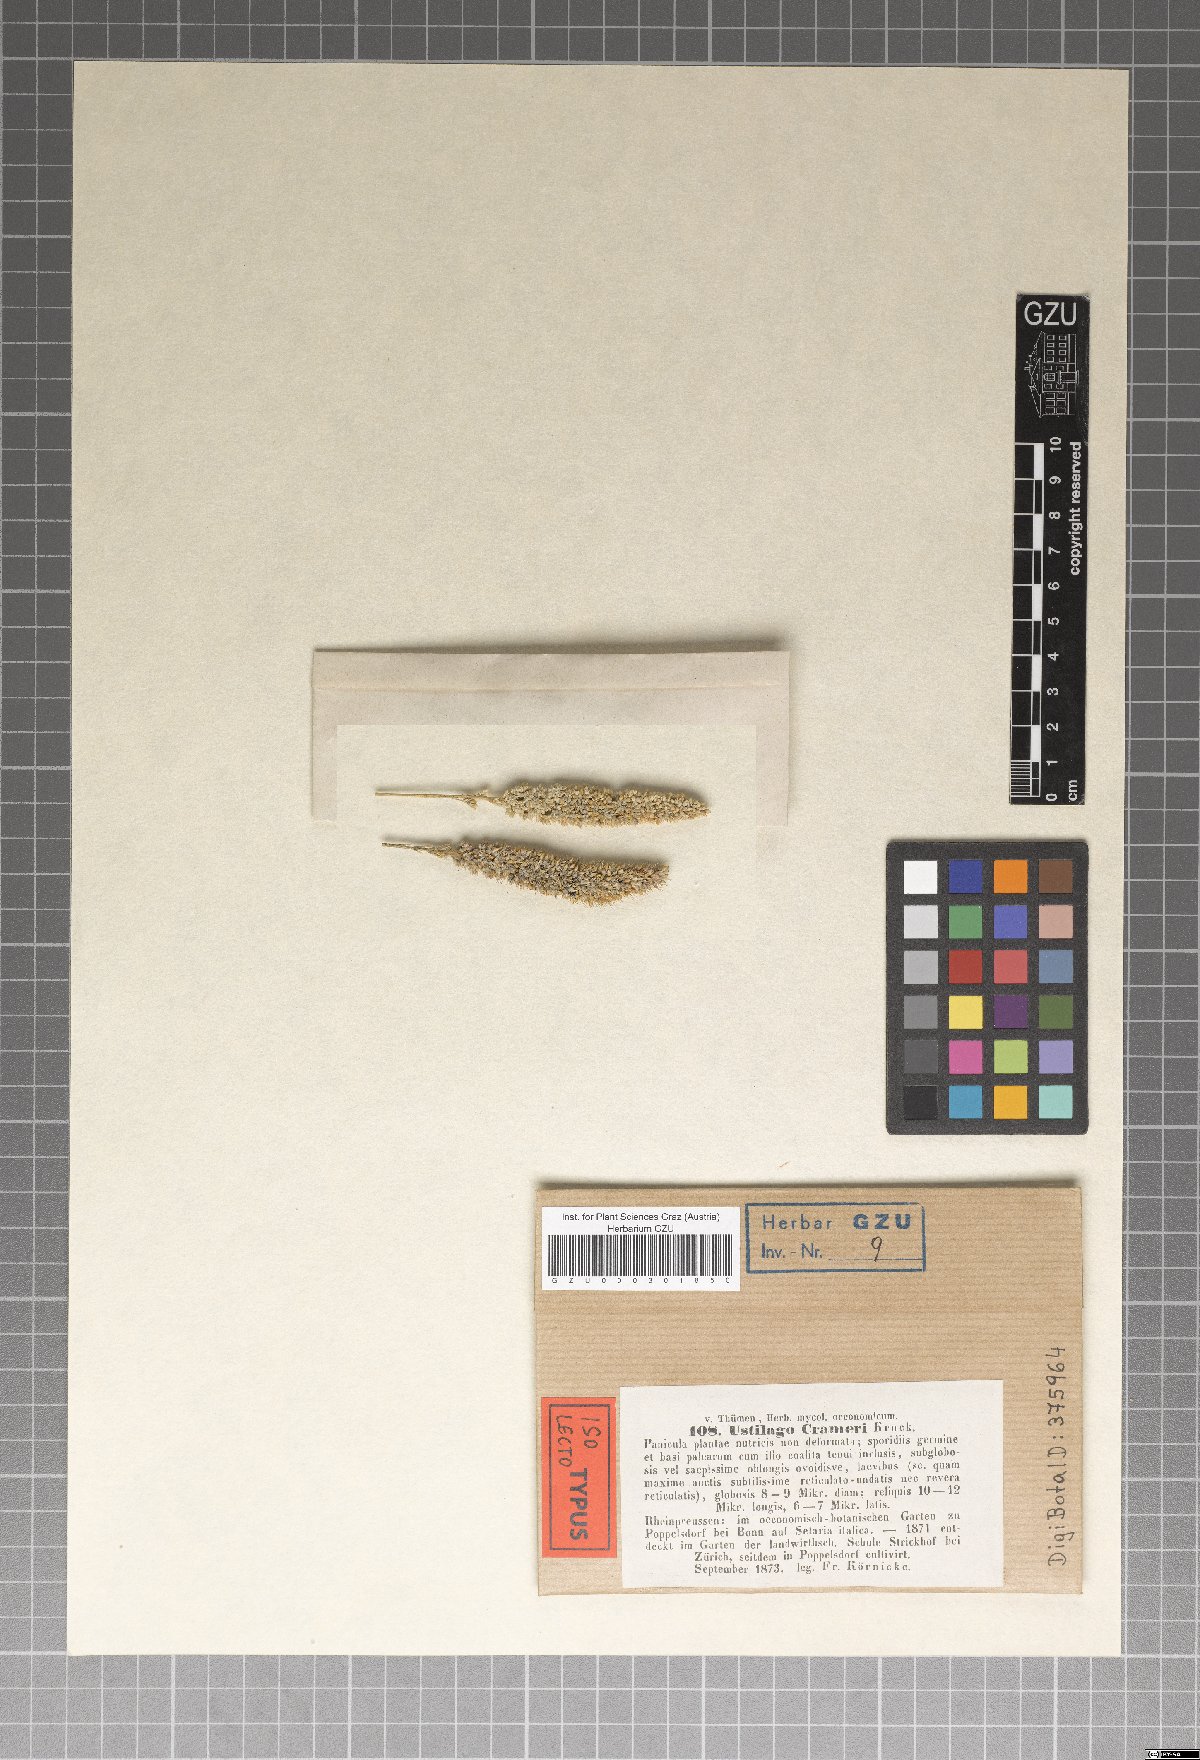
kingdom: Fungi
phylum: Basidiomycota
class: Ustilaginomycetes
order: Ustilaginales
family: Ustilaginaceae
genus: Ustilago
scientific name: Ustilago crameri
